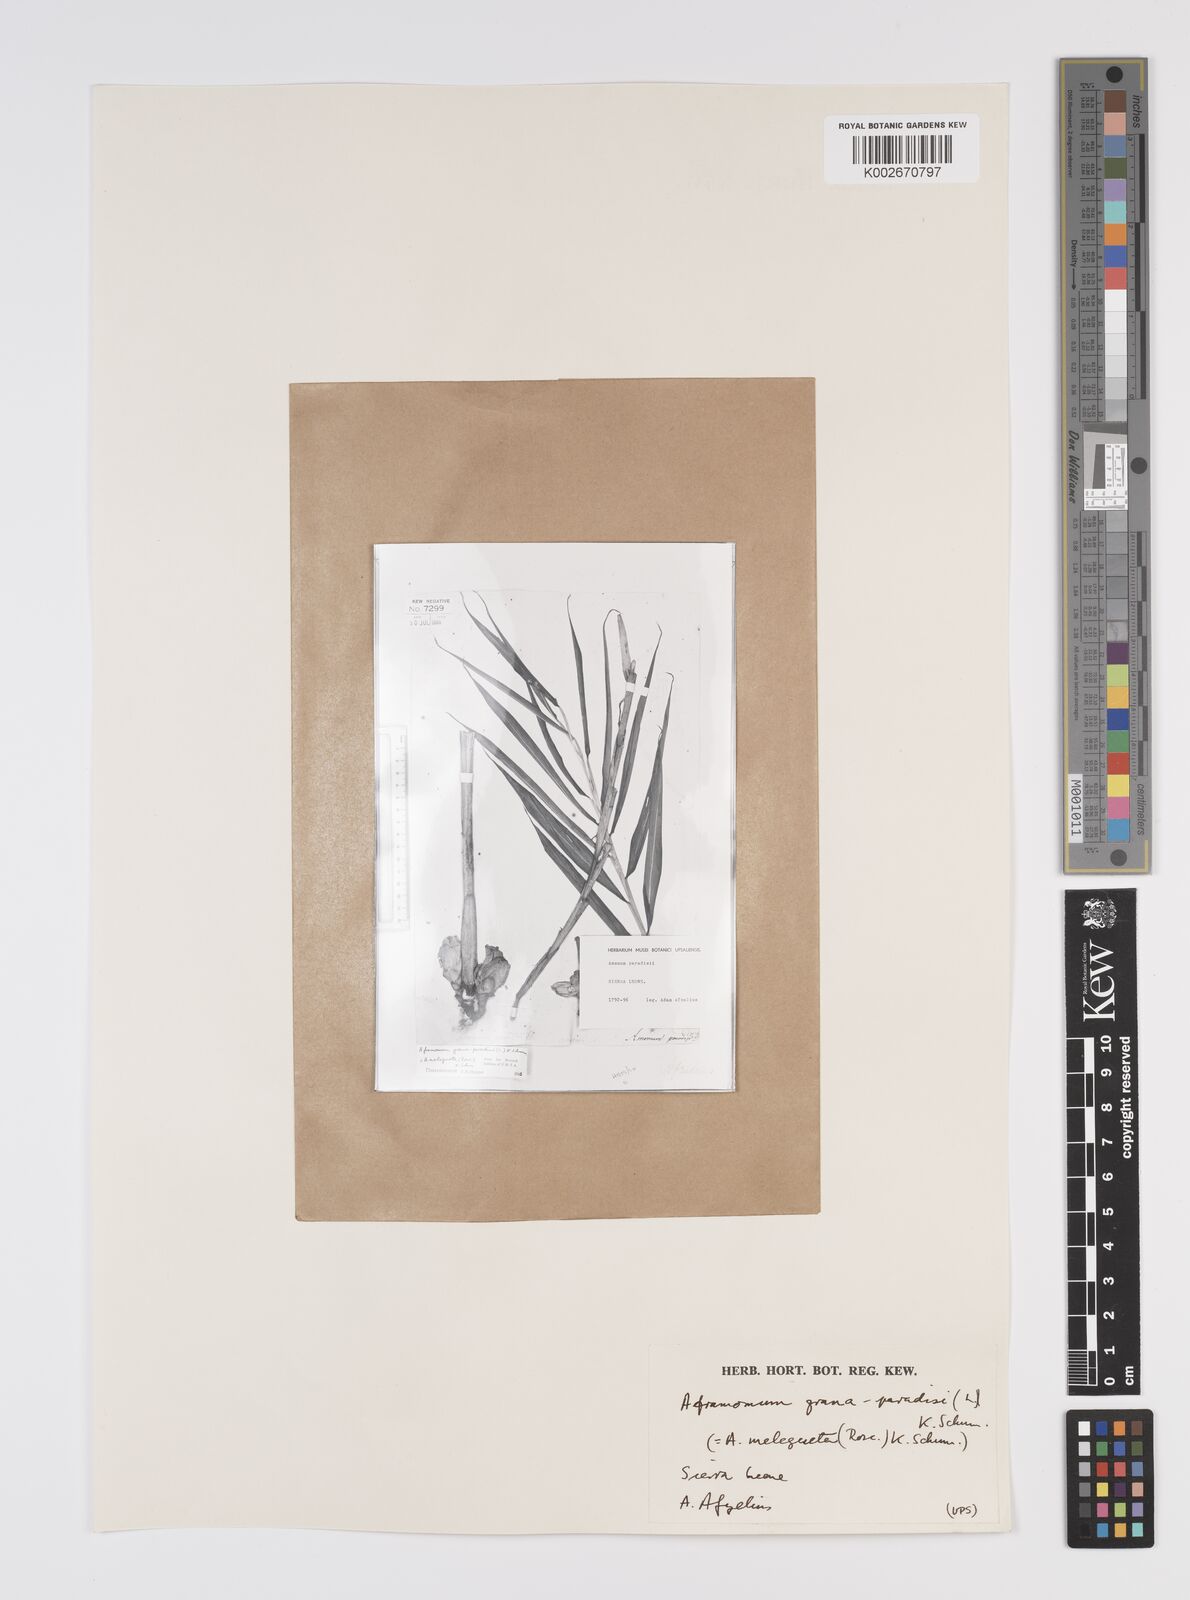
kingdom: Plantae
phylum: Tracheophyta
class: Liliopsida
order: Zingiberales
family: Zingiberaceae
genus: Aframomum
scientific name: Aframomum melegueta
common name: Grains of paradise
